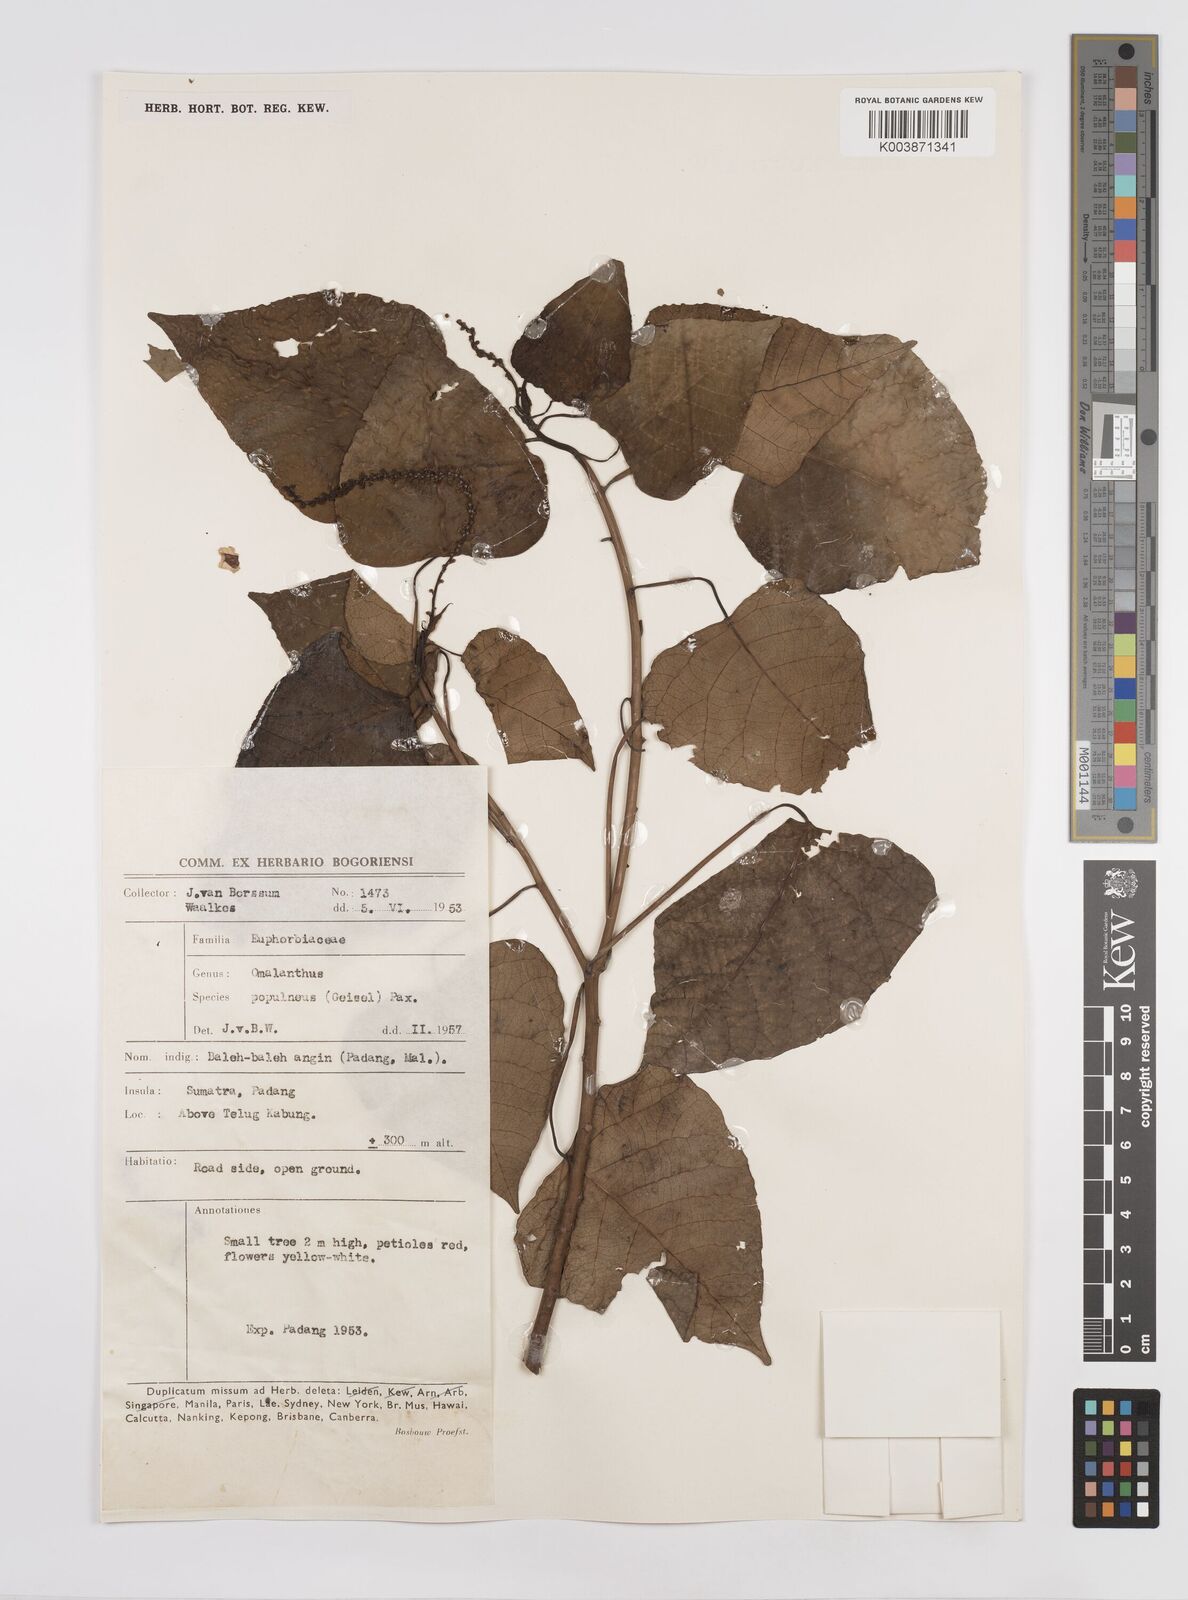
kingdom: Plantae
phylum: Tracheophyta
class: Magnoliopsida
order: Malpighiales
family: Euphorbiaceae
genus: Homalanthus
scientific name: Homalanthus populneus
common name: Spurge
